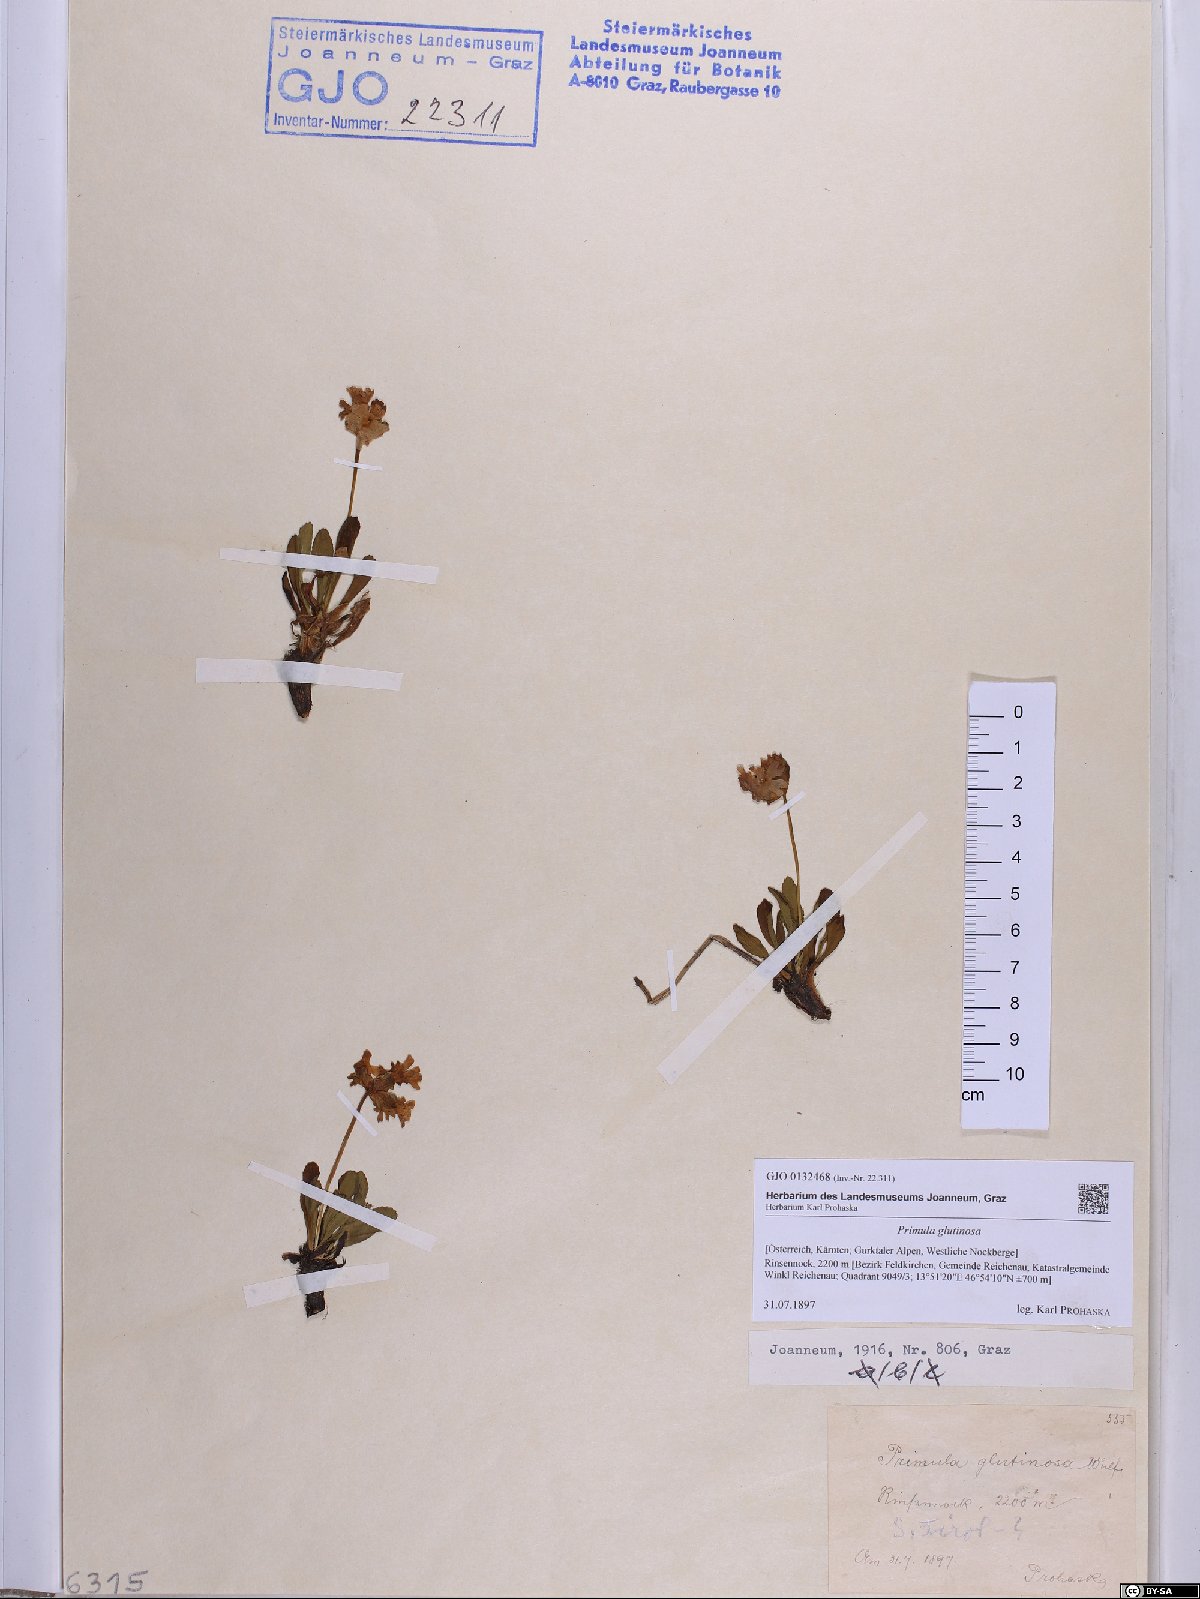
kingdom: Plantae
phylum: Tracheophyta
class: Magnoliopsida
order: Ericales
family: Primulaceae
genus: Primula
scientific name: Primula glutinosa
